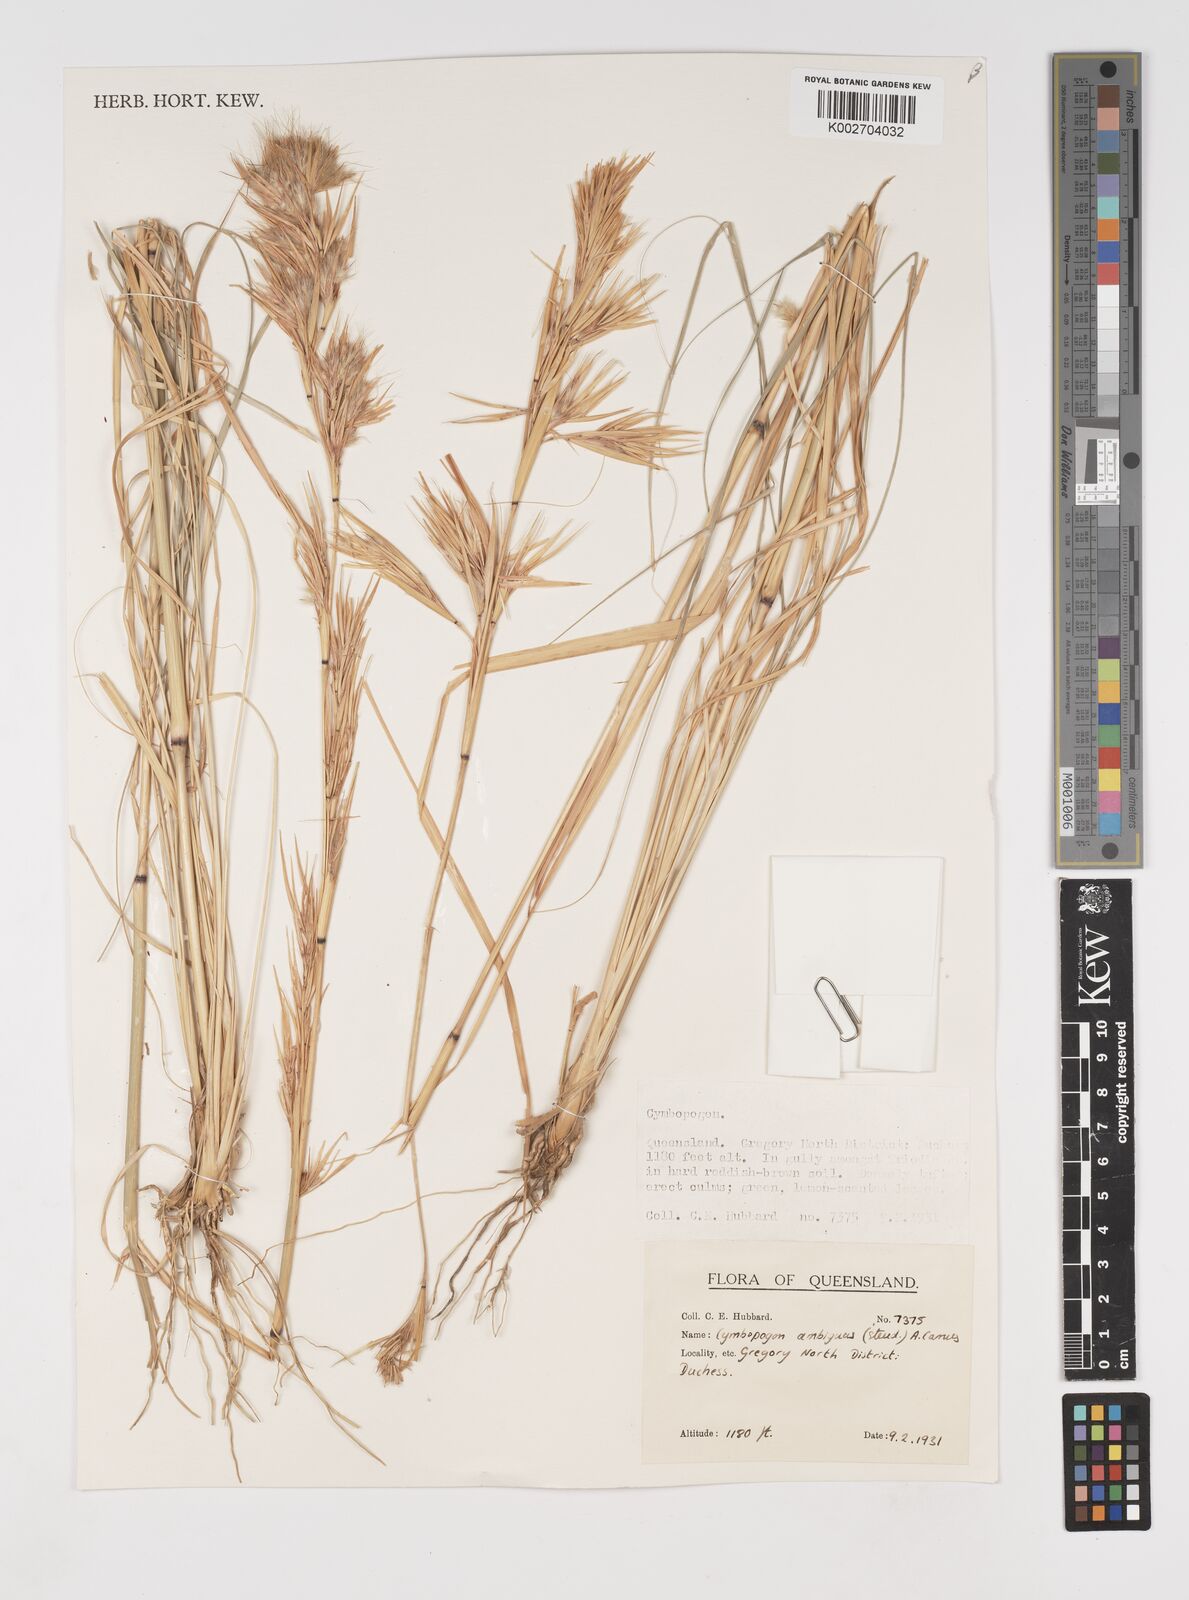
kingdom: Plantae
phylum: Tracheophyta
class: Liliopsida
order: Poales
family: Poaceae
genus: Cymbopogon
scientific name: Cymbopogon ambiguus
